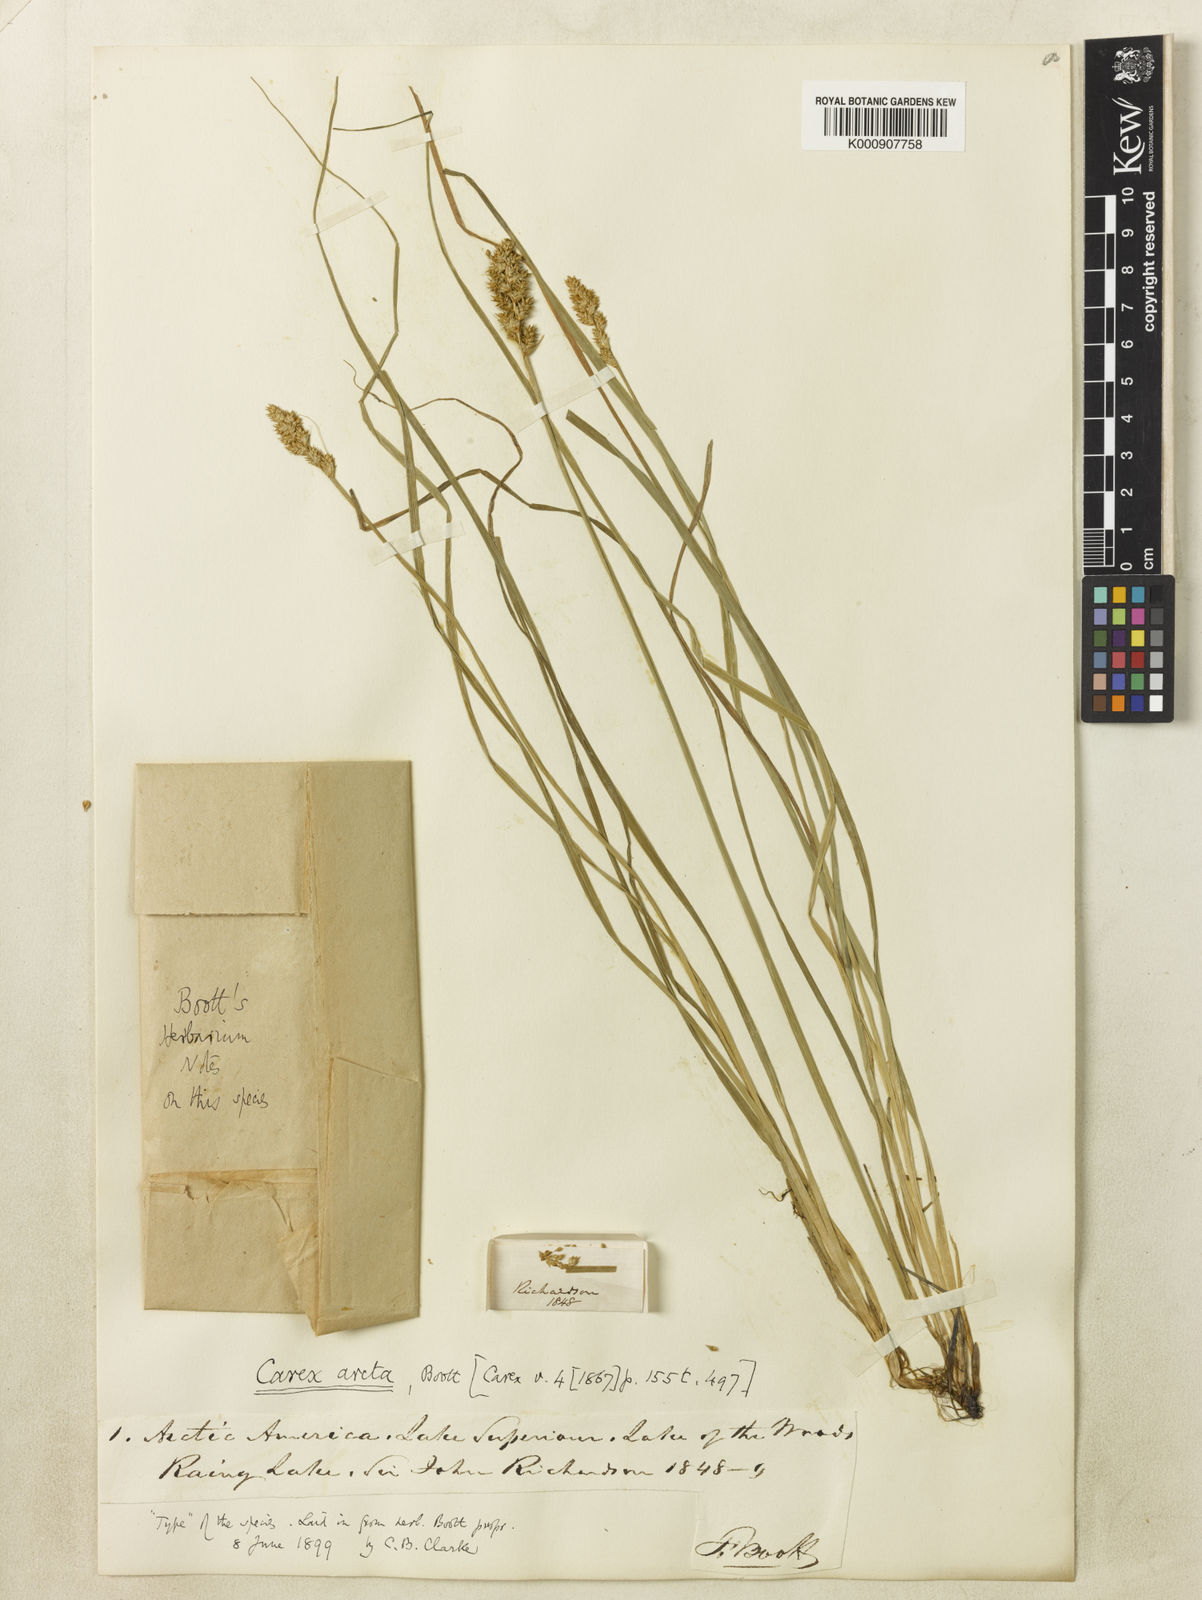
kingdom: Plantae
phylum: Tracheophyta
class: Liliopsida
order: Poales
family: Cyperaceae
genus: Carex
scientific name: Carex arcta
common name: Bear sedge
